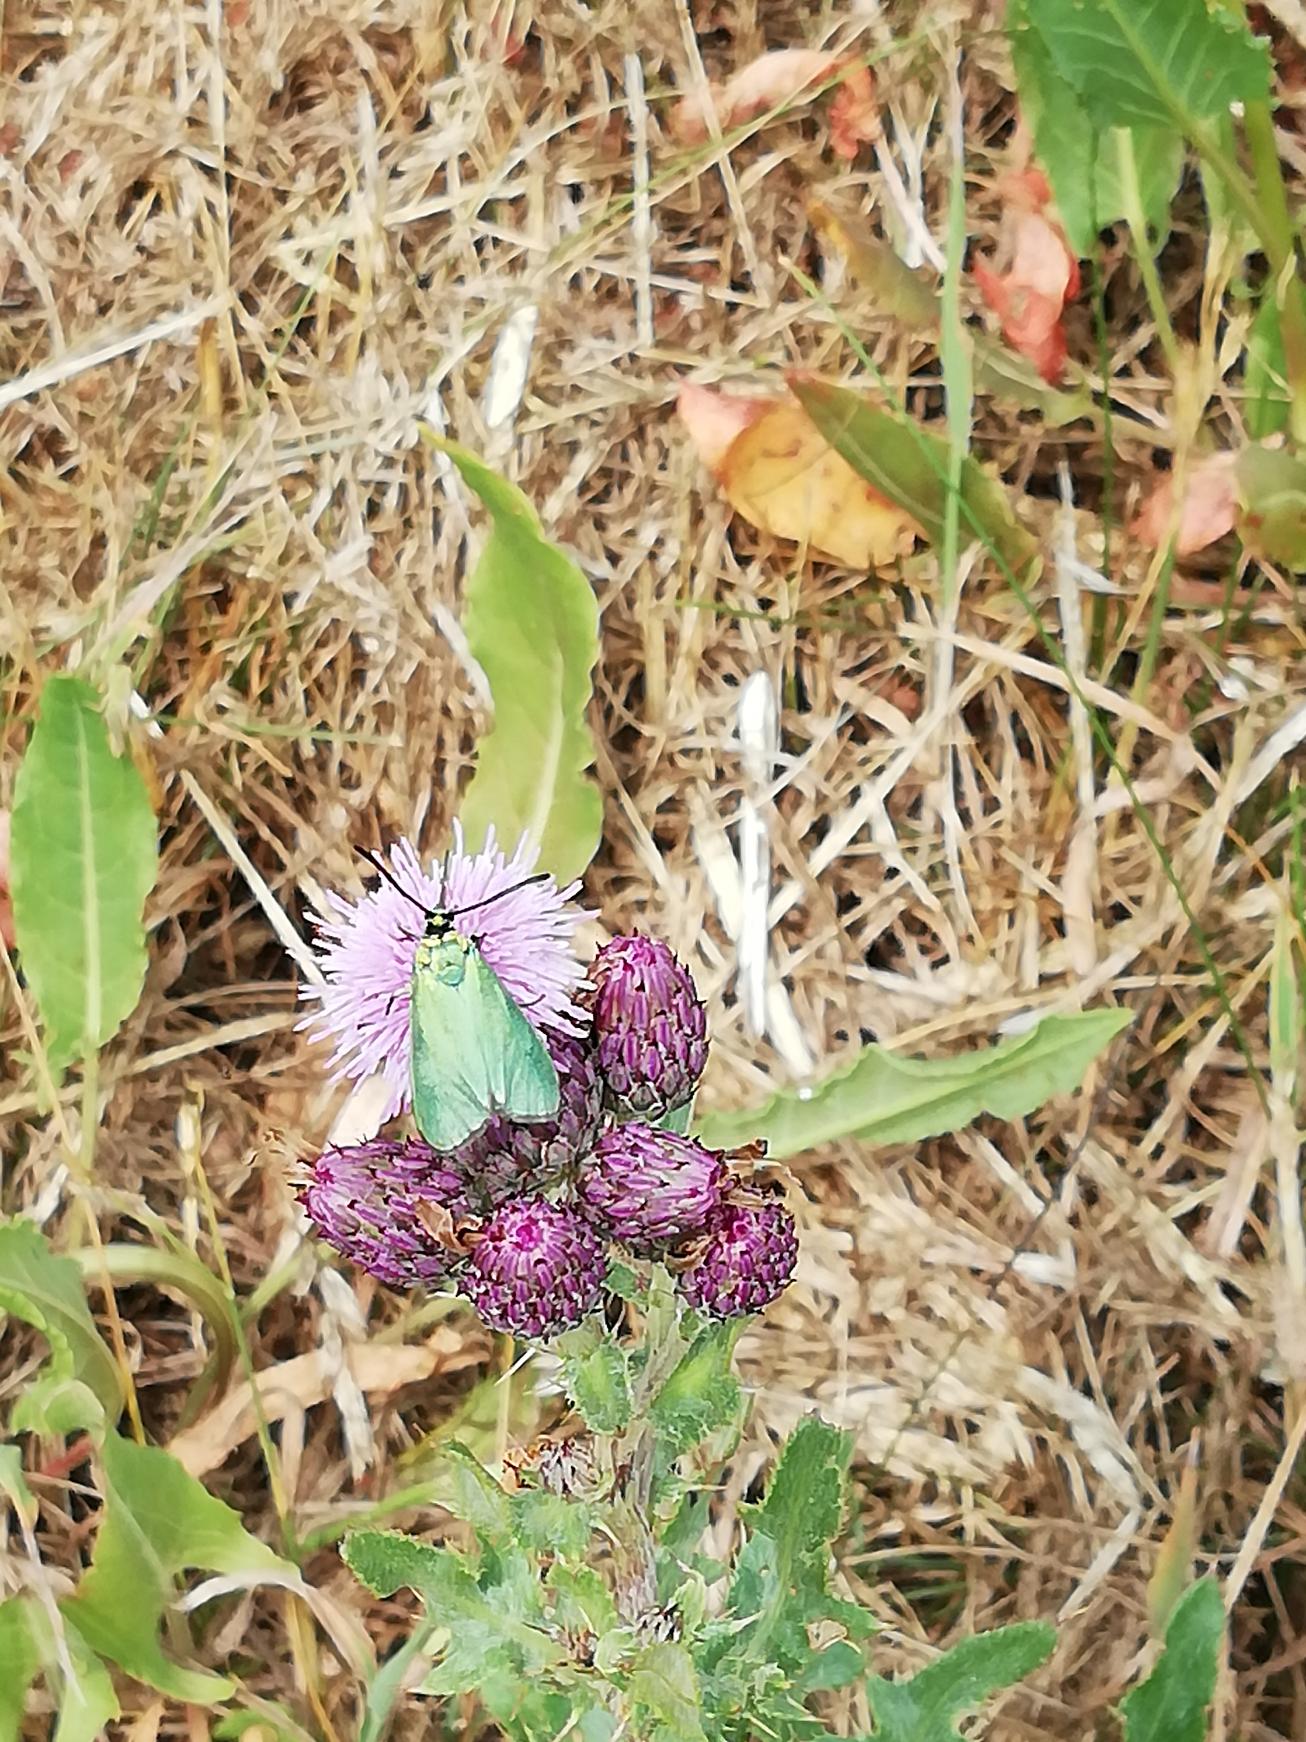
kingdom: Animalia
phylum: Arthropoda
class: Insecta
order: Lepidoptera
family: Zygaenidae
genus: Adscita
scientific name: Adscita statices
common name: Metalvinge
